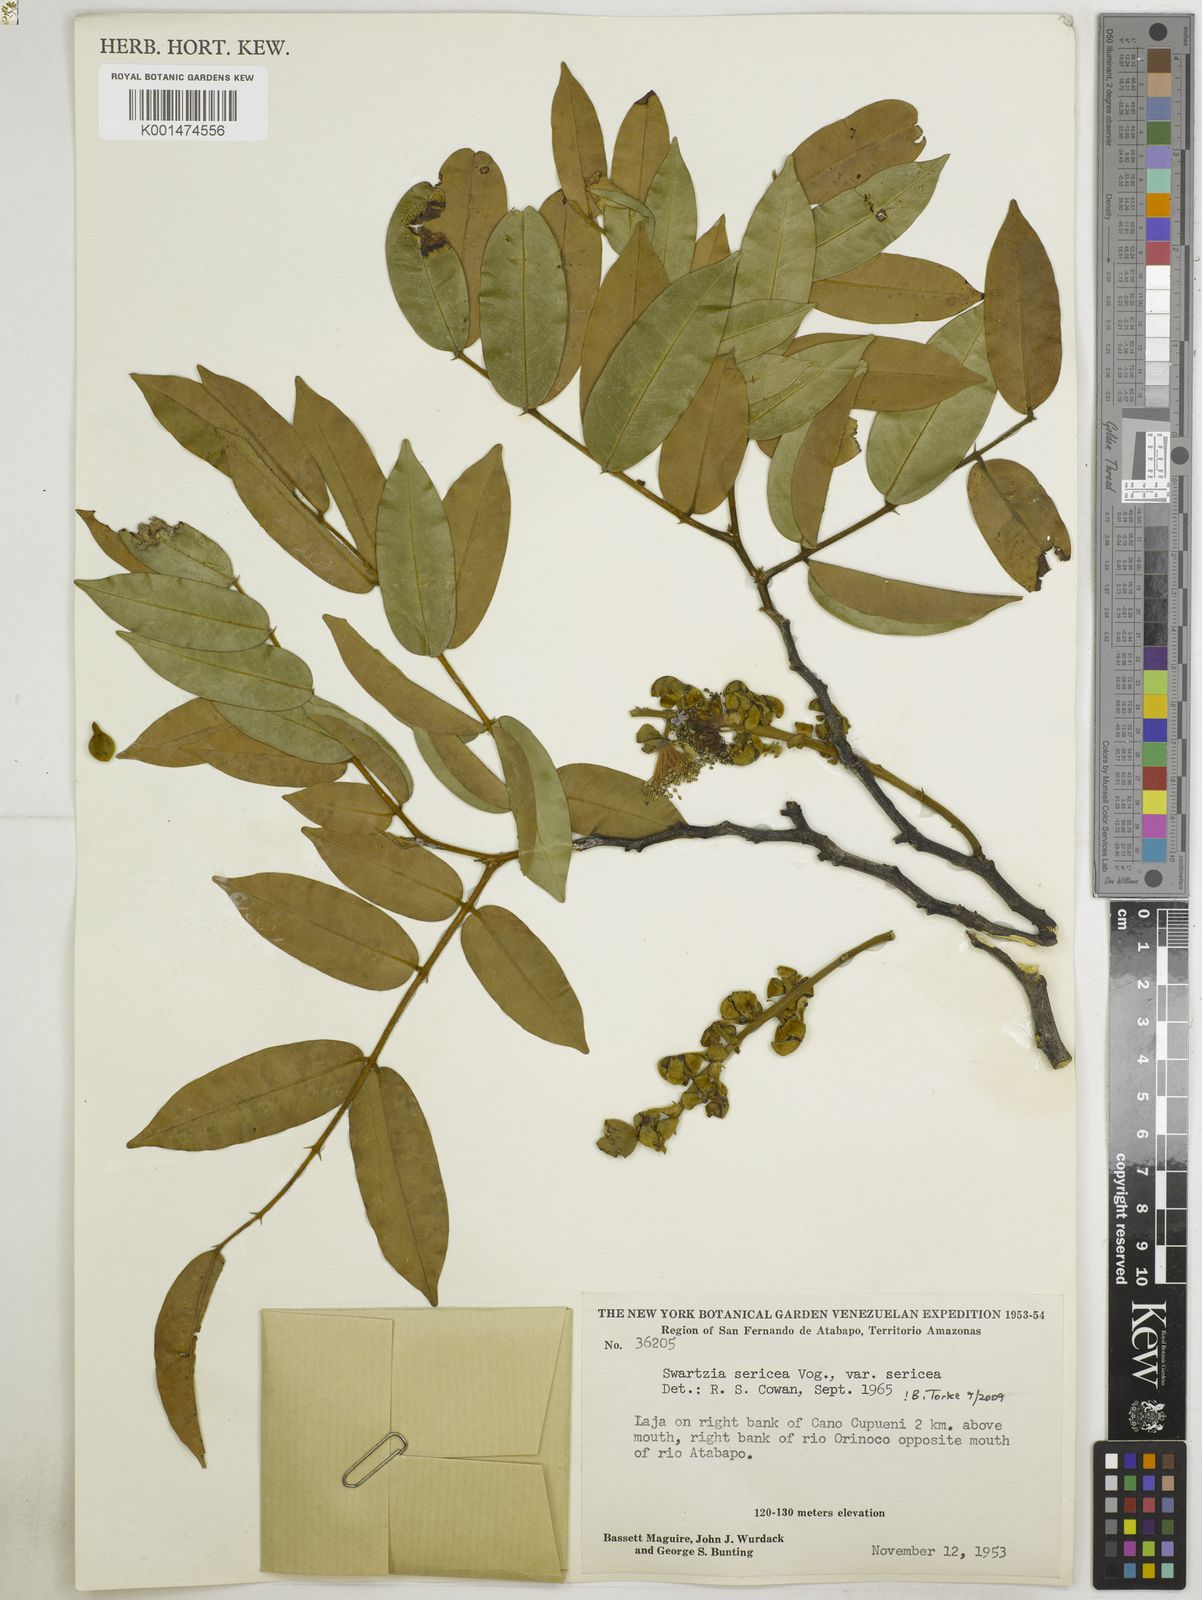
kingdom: Plantae
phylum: Tracheophyta
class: Magnoliopsida
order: Fabales
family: Fabaceae
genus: Swartzia
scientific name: Swartzia sericea
